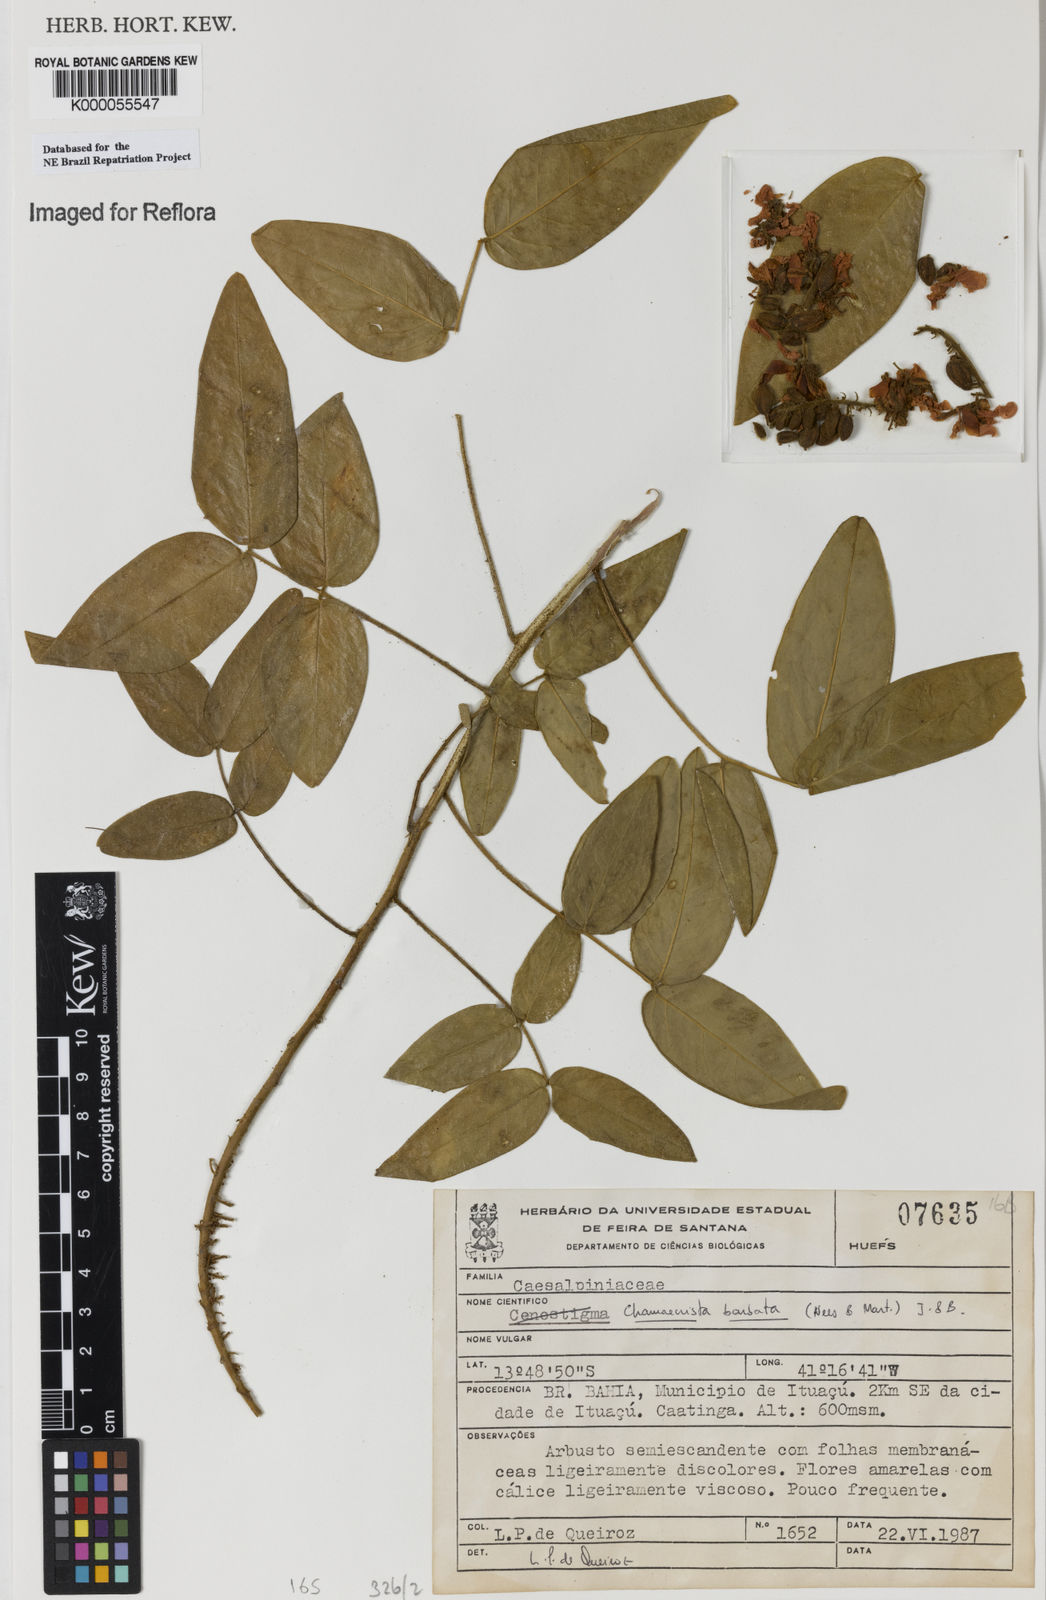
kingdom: Plantae
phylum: Tracheophyta
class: Magnoliopsida
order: Fabales
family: Fabaceae
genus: Chamaecrista
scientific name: Chamaecrista barbata
